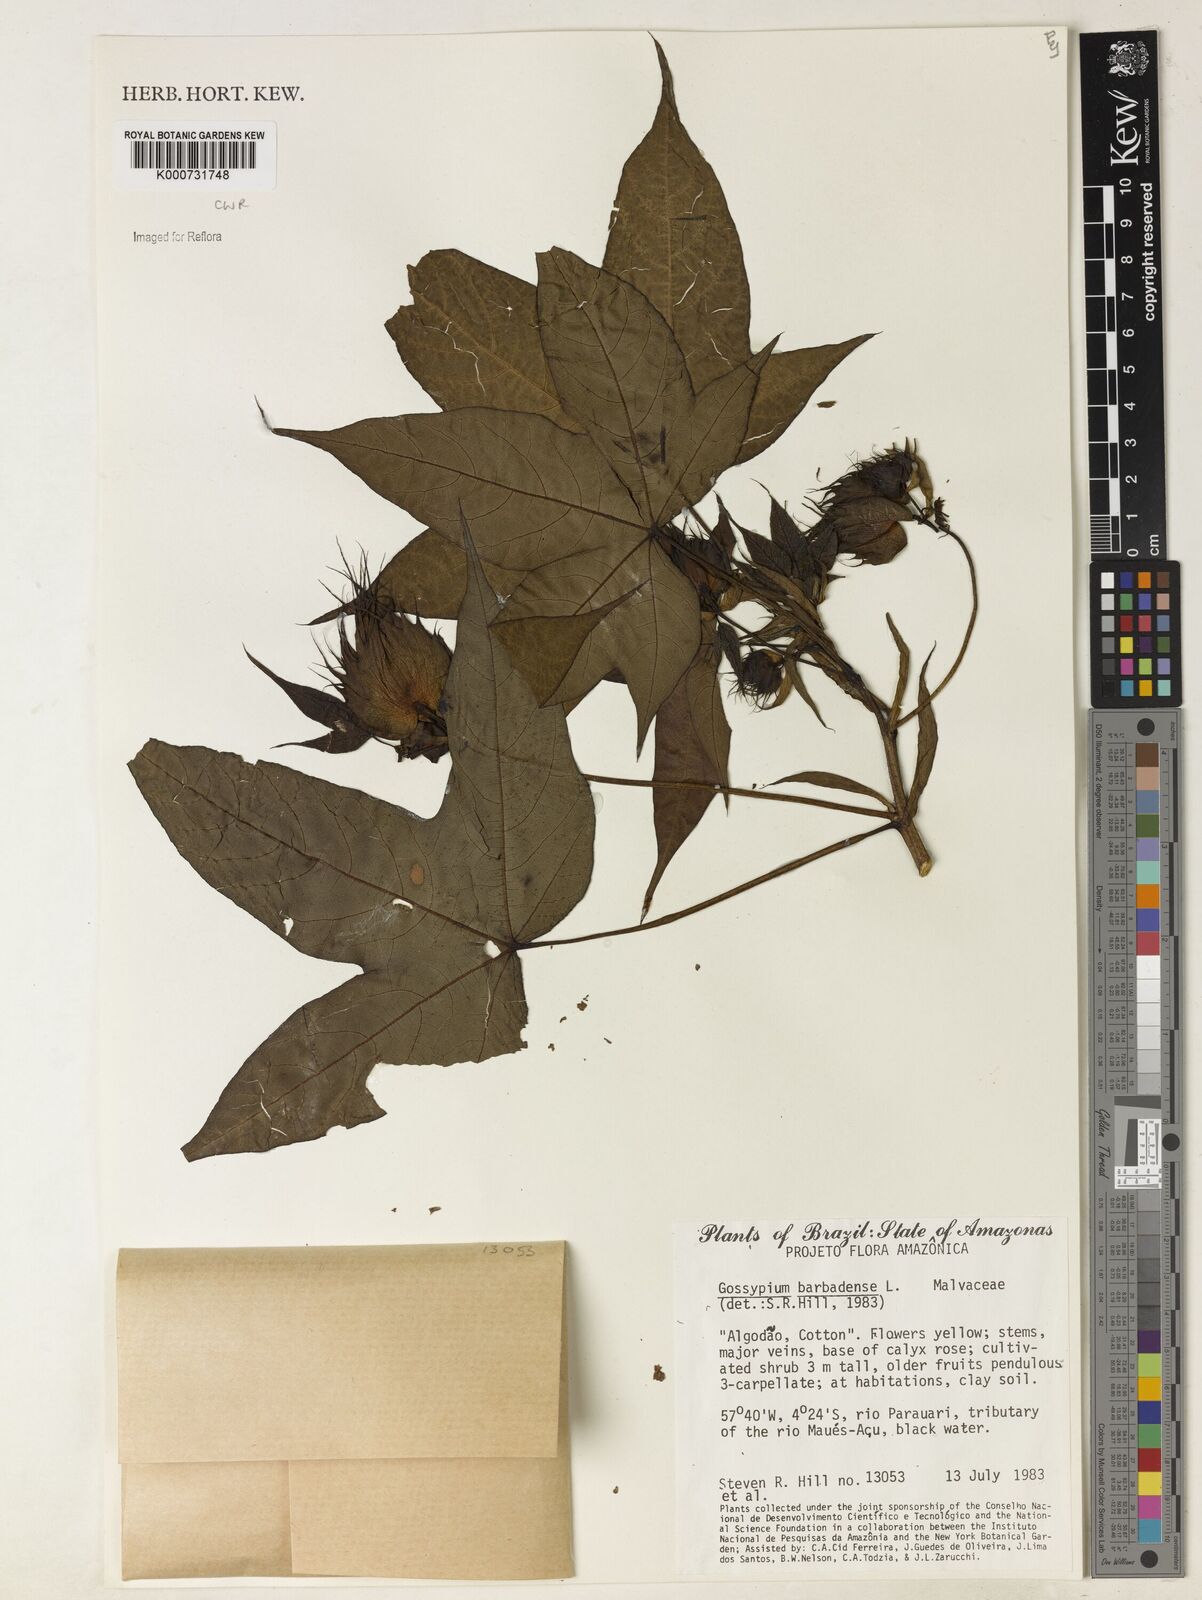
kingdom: Plantae
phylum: Tracheophyta
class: Magnoliopsida
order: Malvales
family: Malvaceae
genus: Gossypium
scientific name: Gossypium barbadense
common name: Creole cotton
